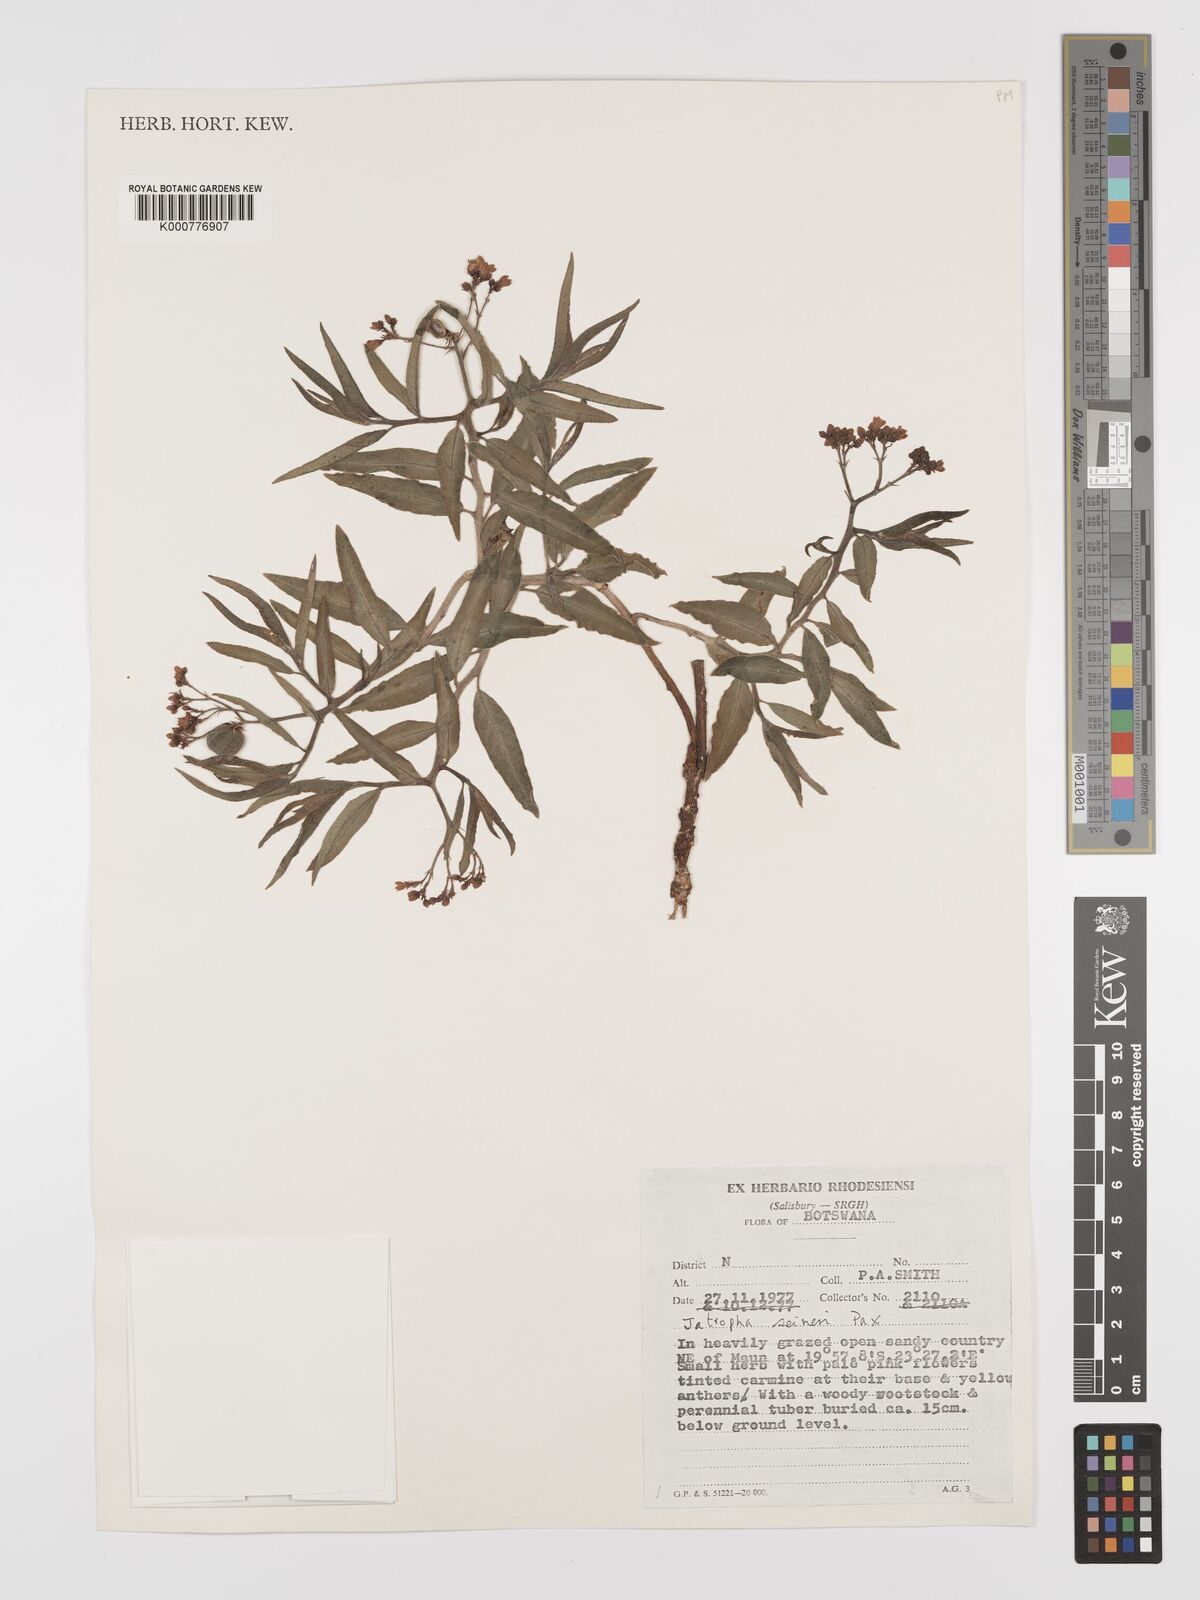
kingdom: Plantae
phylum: Tracheophyta
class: Magnoliopsida
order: Malpighiales
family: Euphorbiaceae
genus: Jatropha
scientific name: Jatropha seineri
